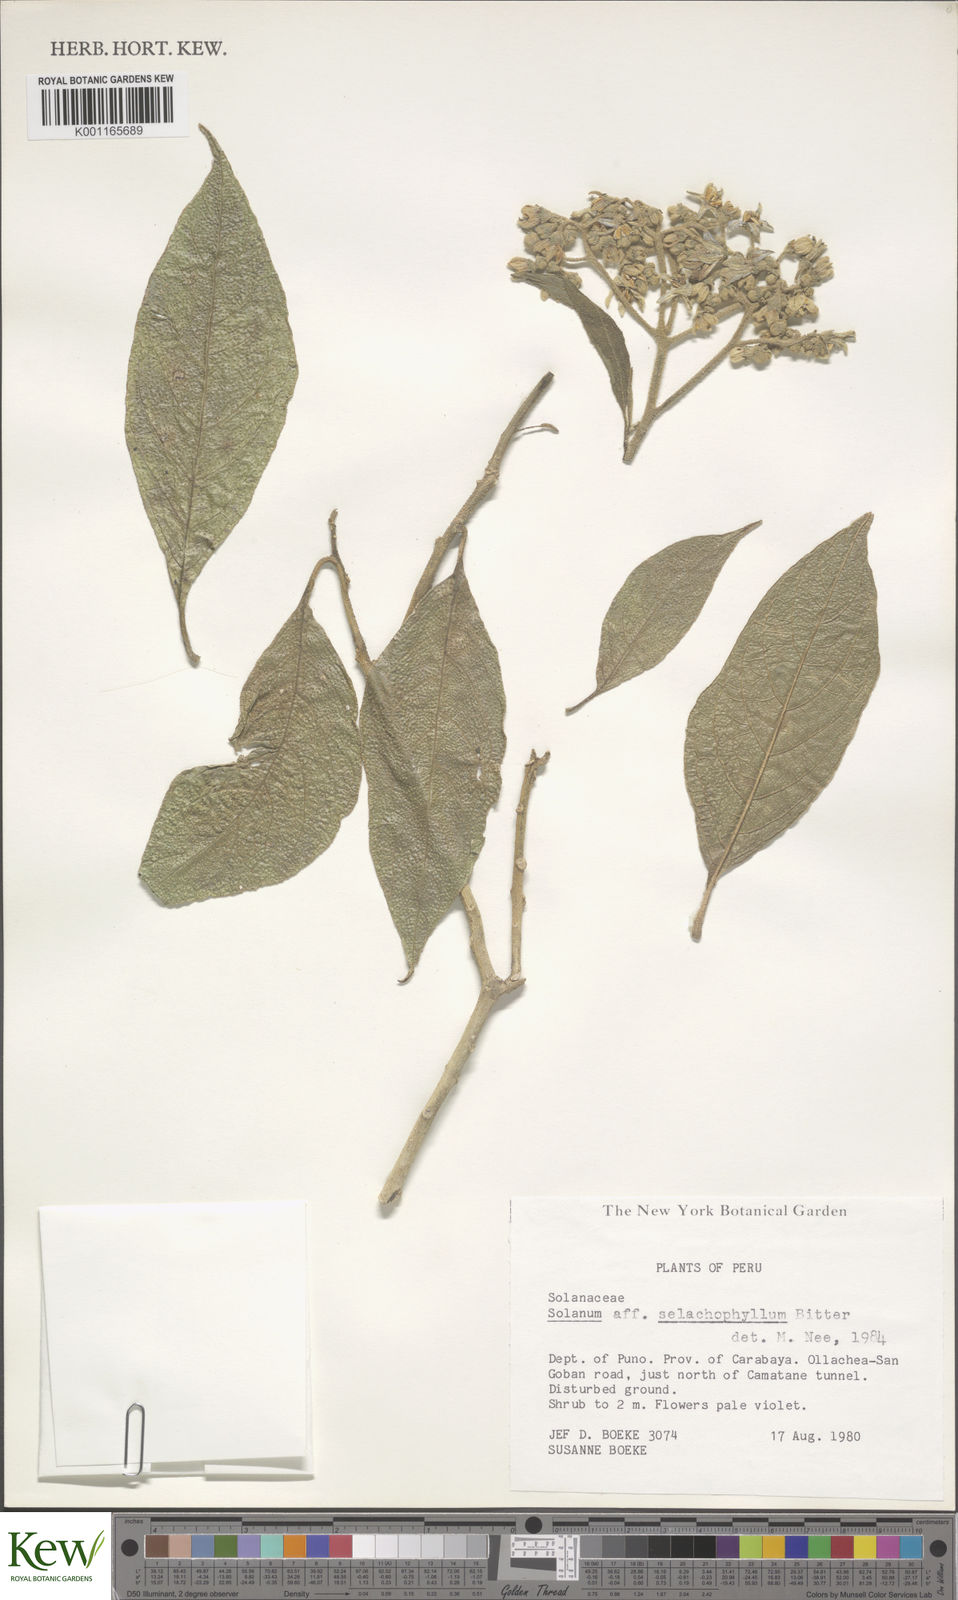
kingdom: Plantae
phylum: Tracheophyta
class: Magnoliopsida
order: Solanales
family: Solanaceae
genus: Solanum
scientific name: Solanum selachophyllum
